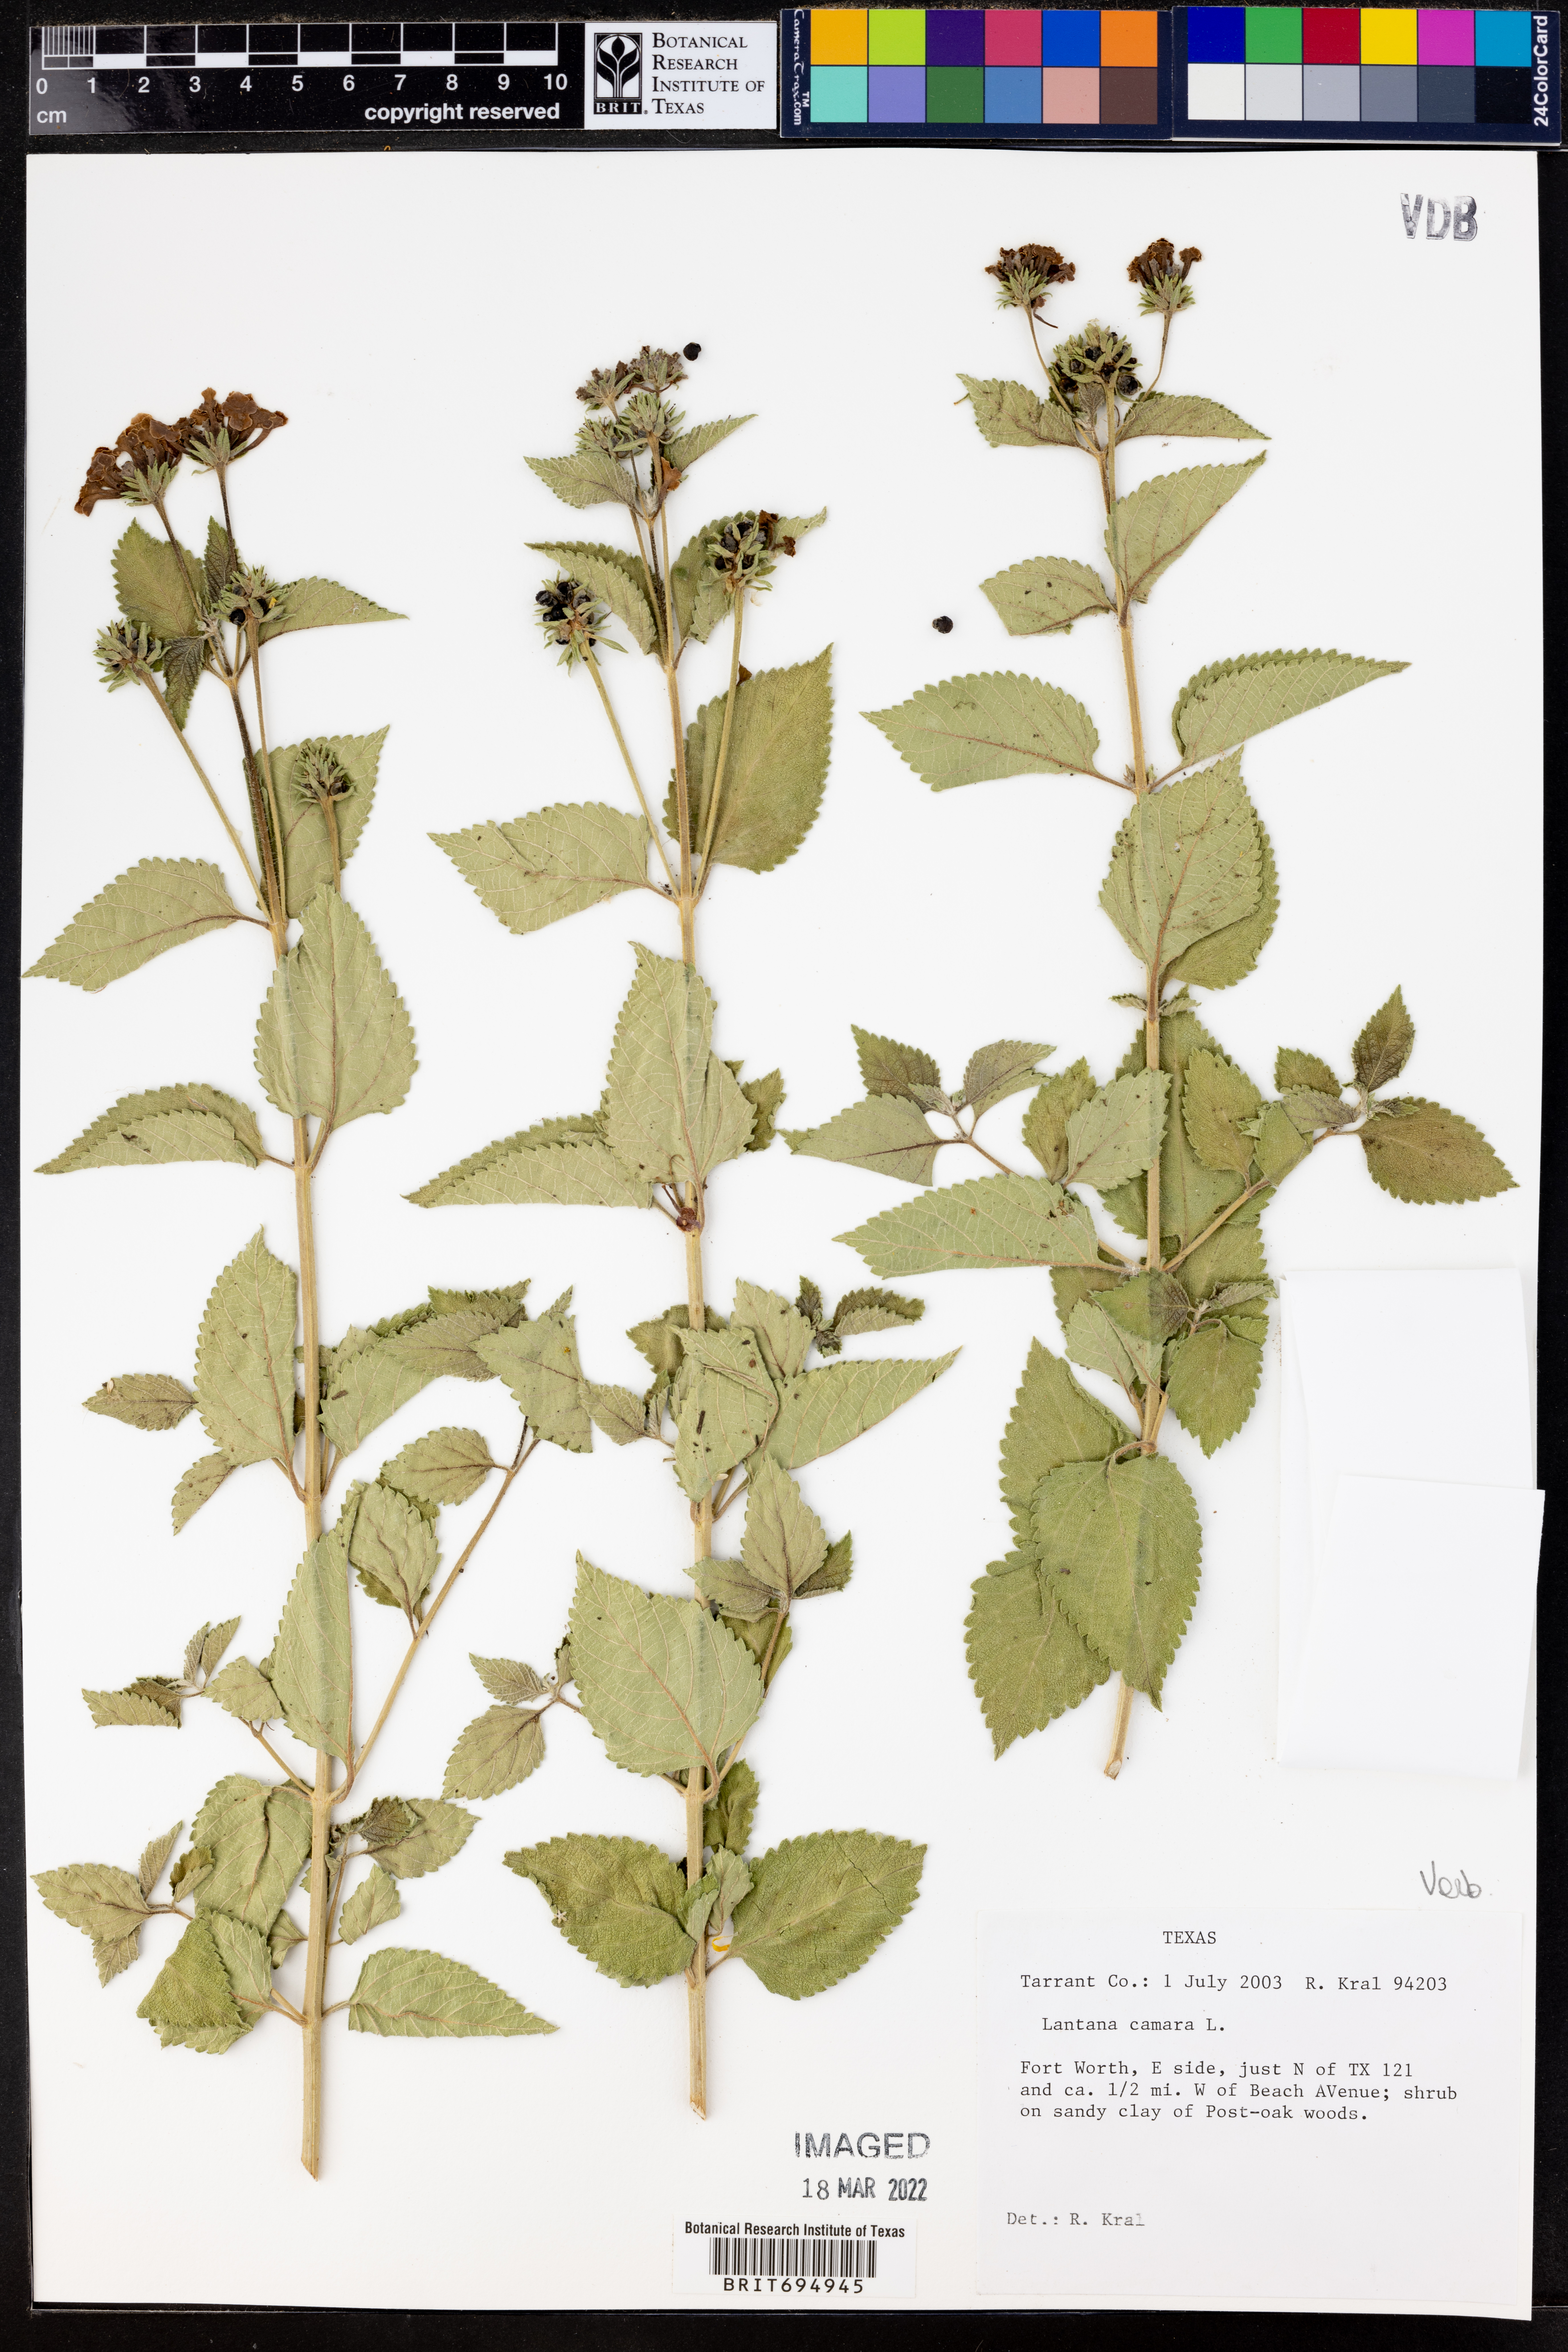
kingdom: Plantae
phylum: Tracheophyta
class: Magnoliopsida
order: Lamiales
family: Verbenaceae
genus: Lantana
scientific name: Lantana camara
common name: Lantana
